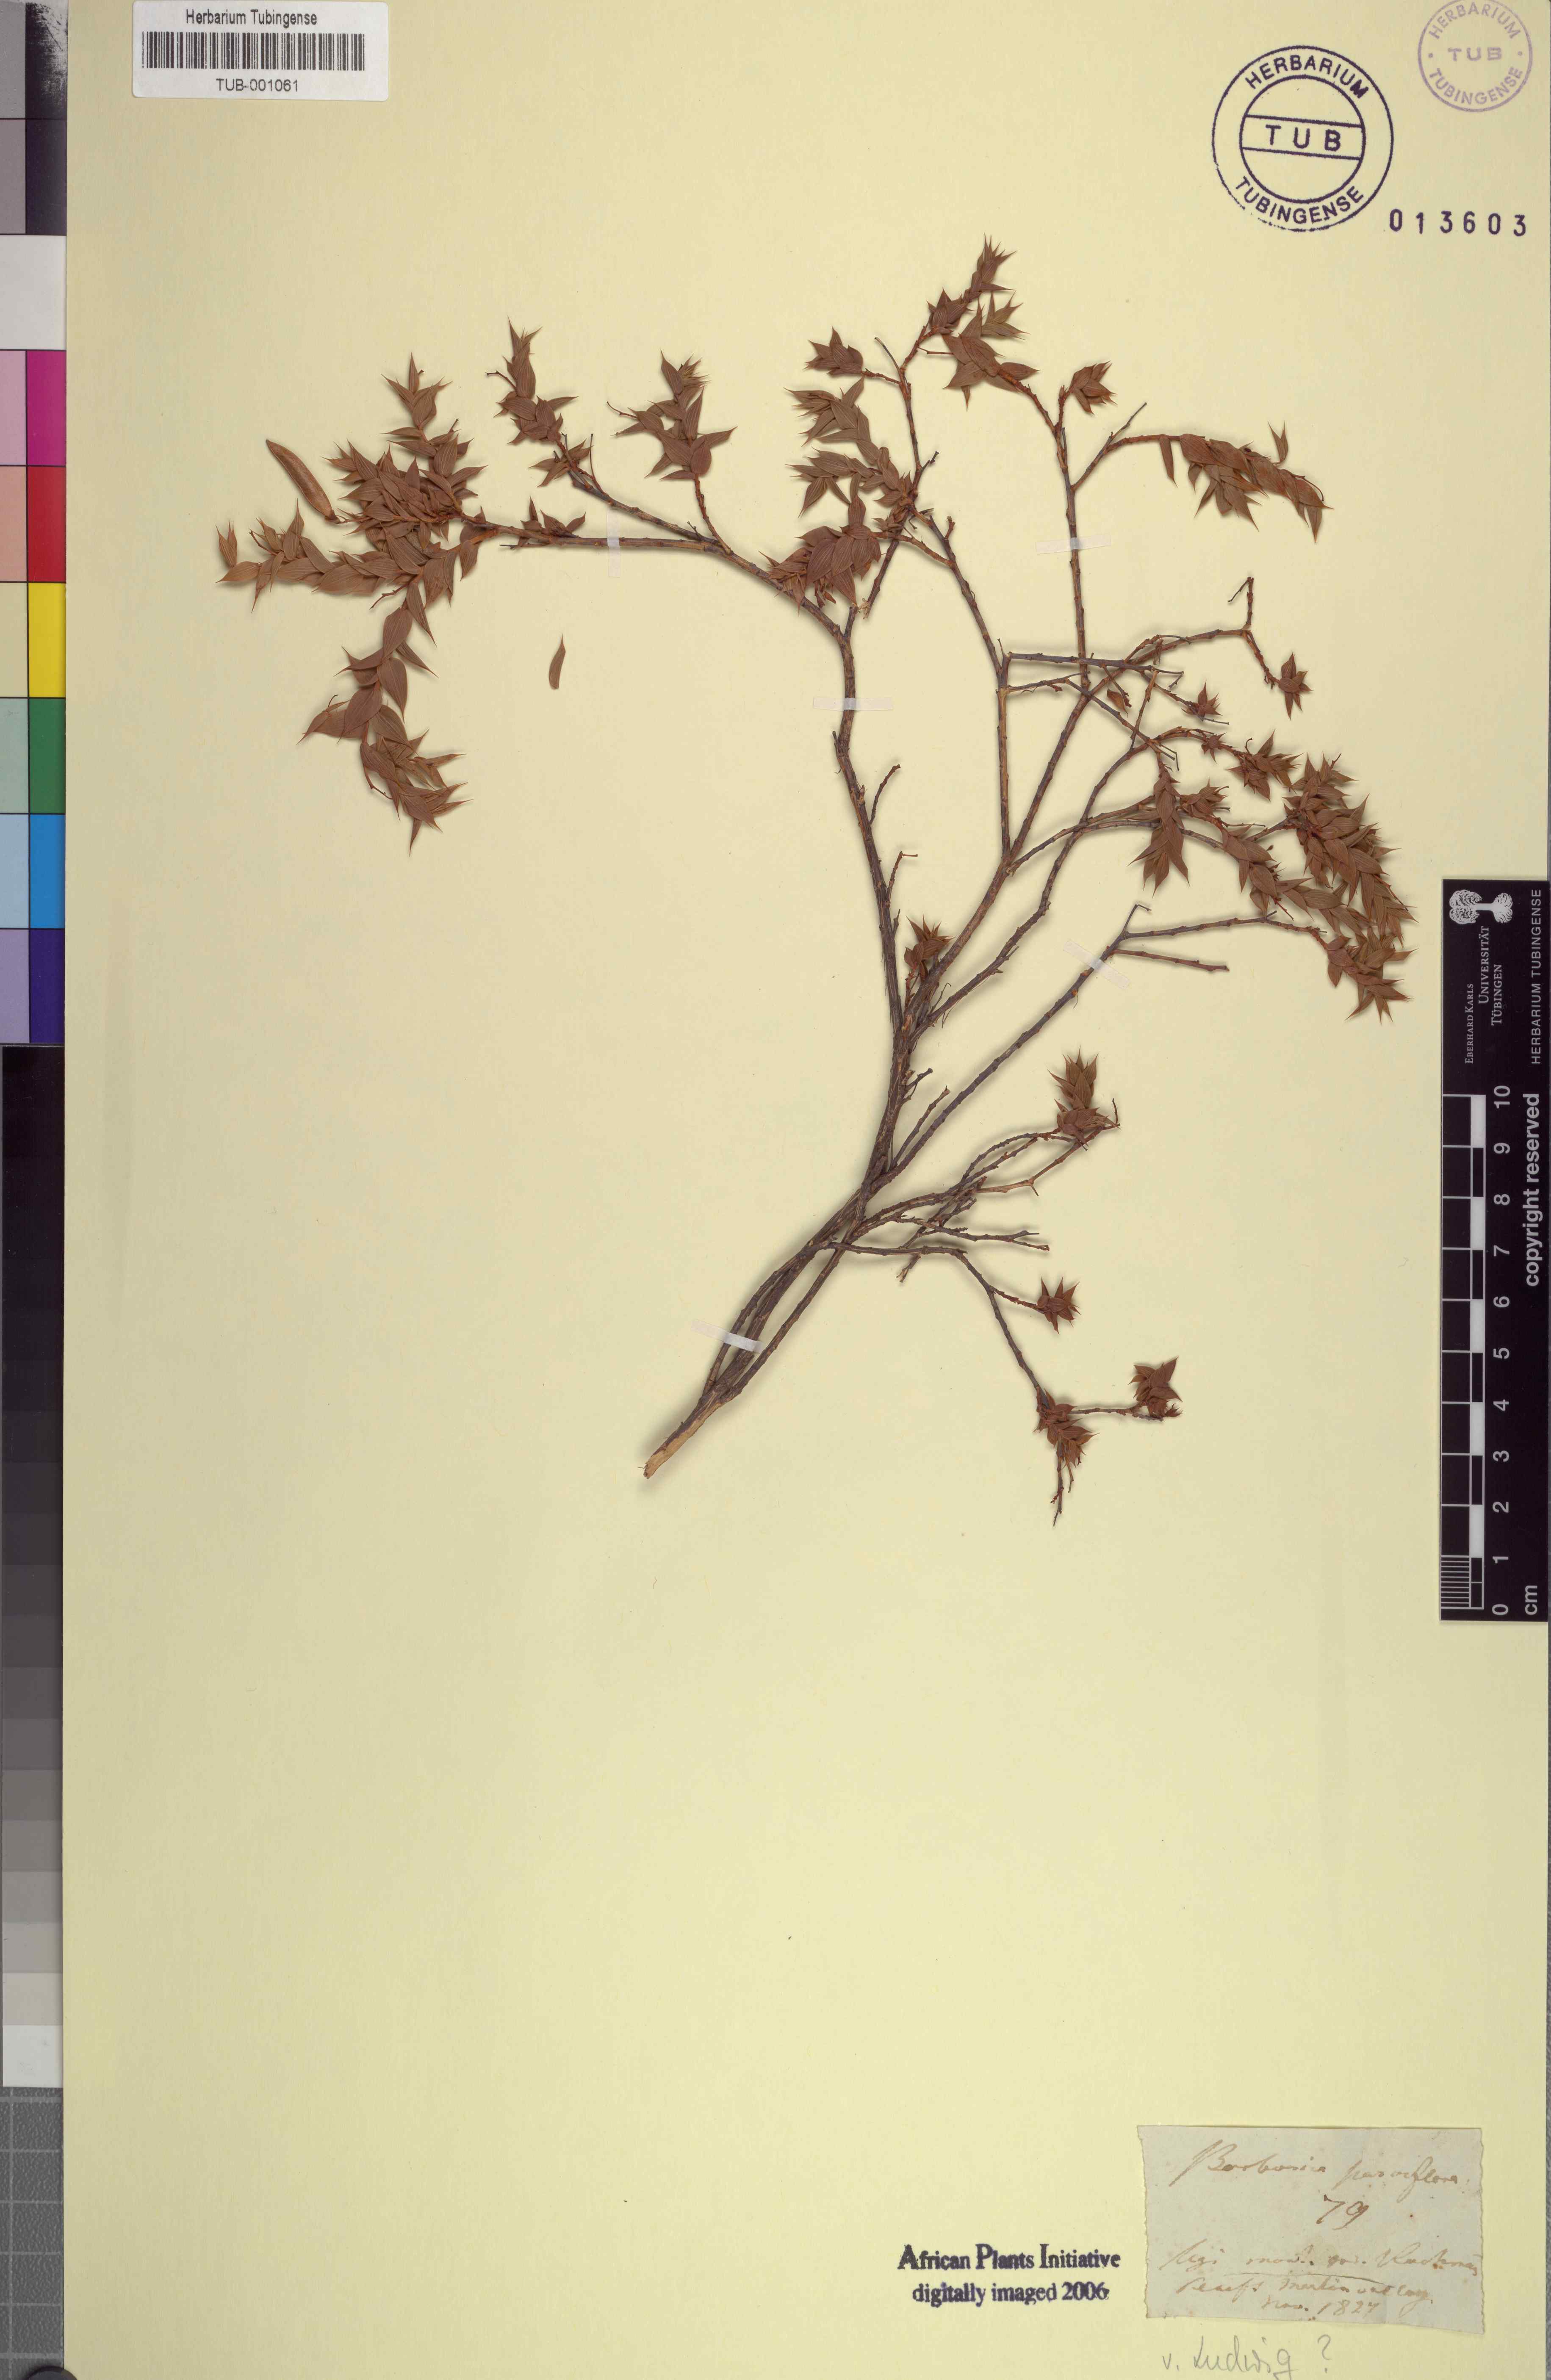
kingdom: Plantae
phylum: Tracheophyta
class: Magnoliopsida
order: Fabales
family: Fabaceae
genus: Aspalathus
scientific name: Aspalathus crenata
